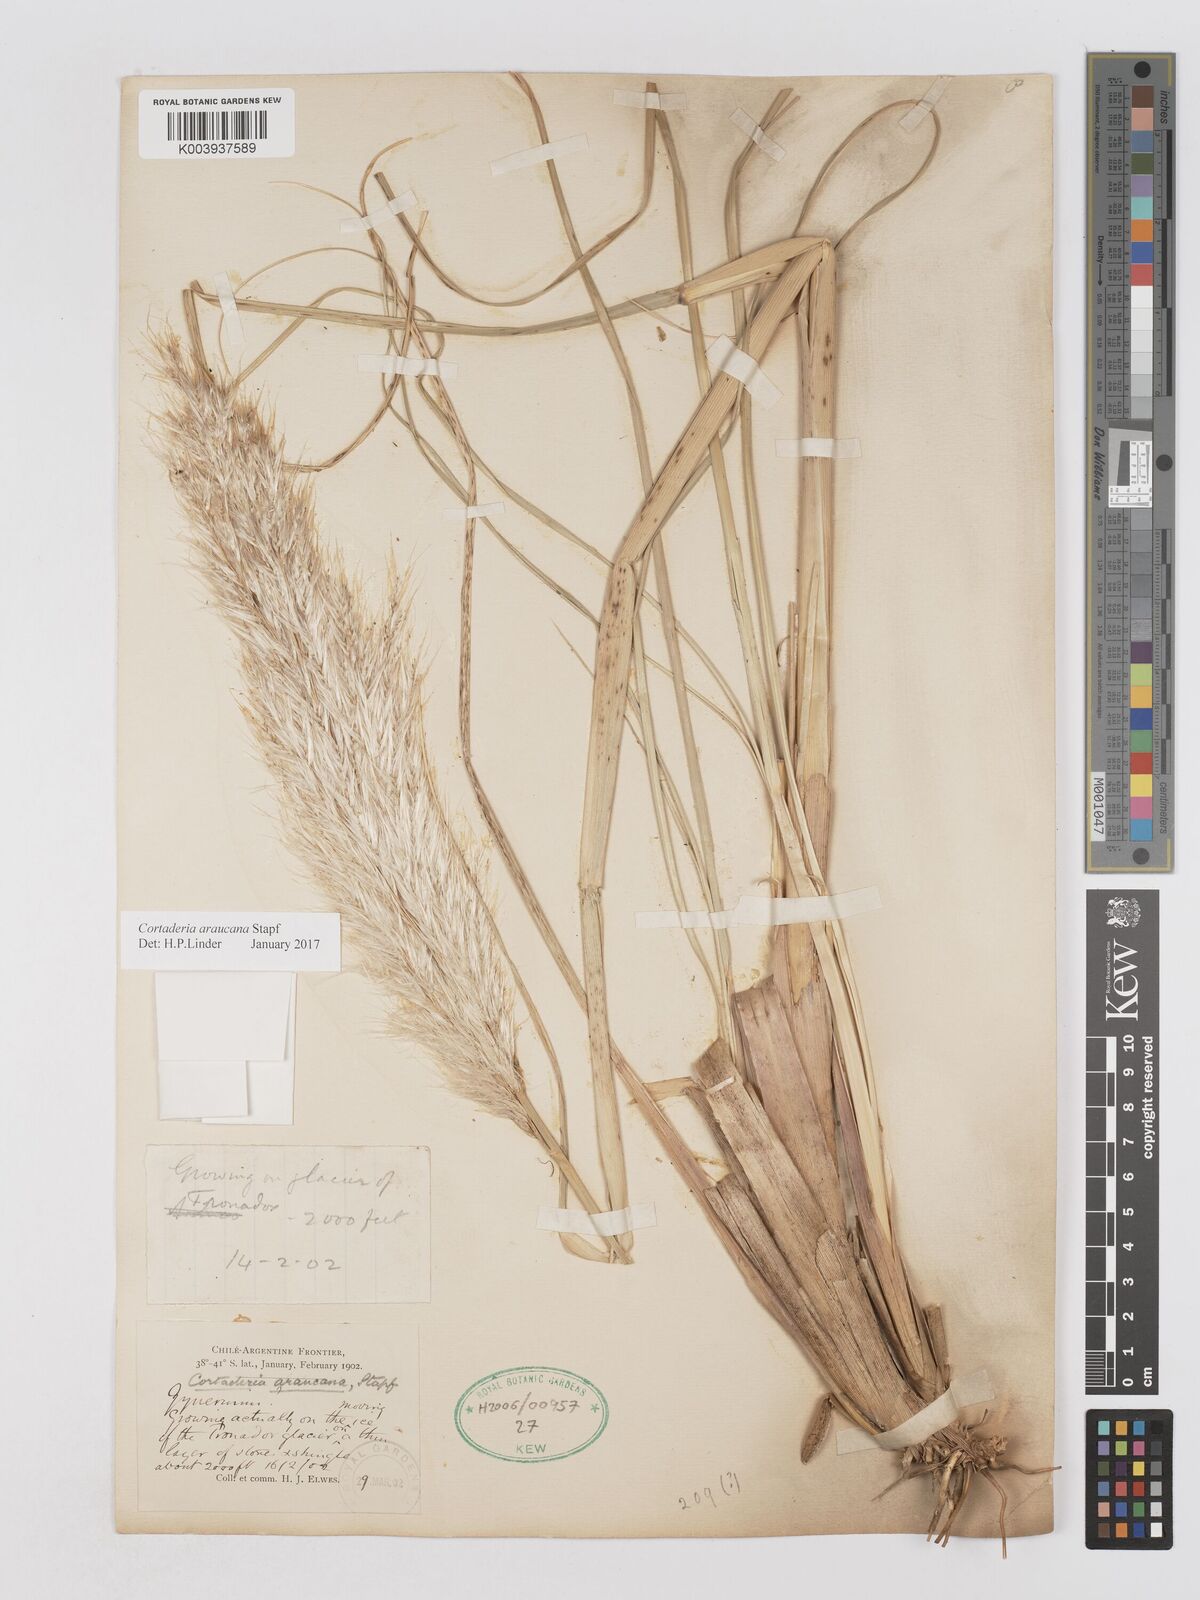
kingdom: Plantae
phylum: Tracheophyta
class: Liliopsida
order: Poales
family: Poaceae
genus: Cortaderia
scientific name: Cortaderia araucana
